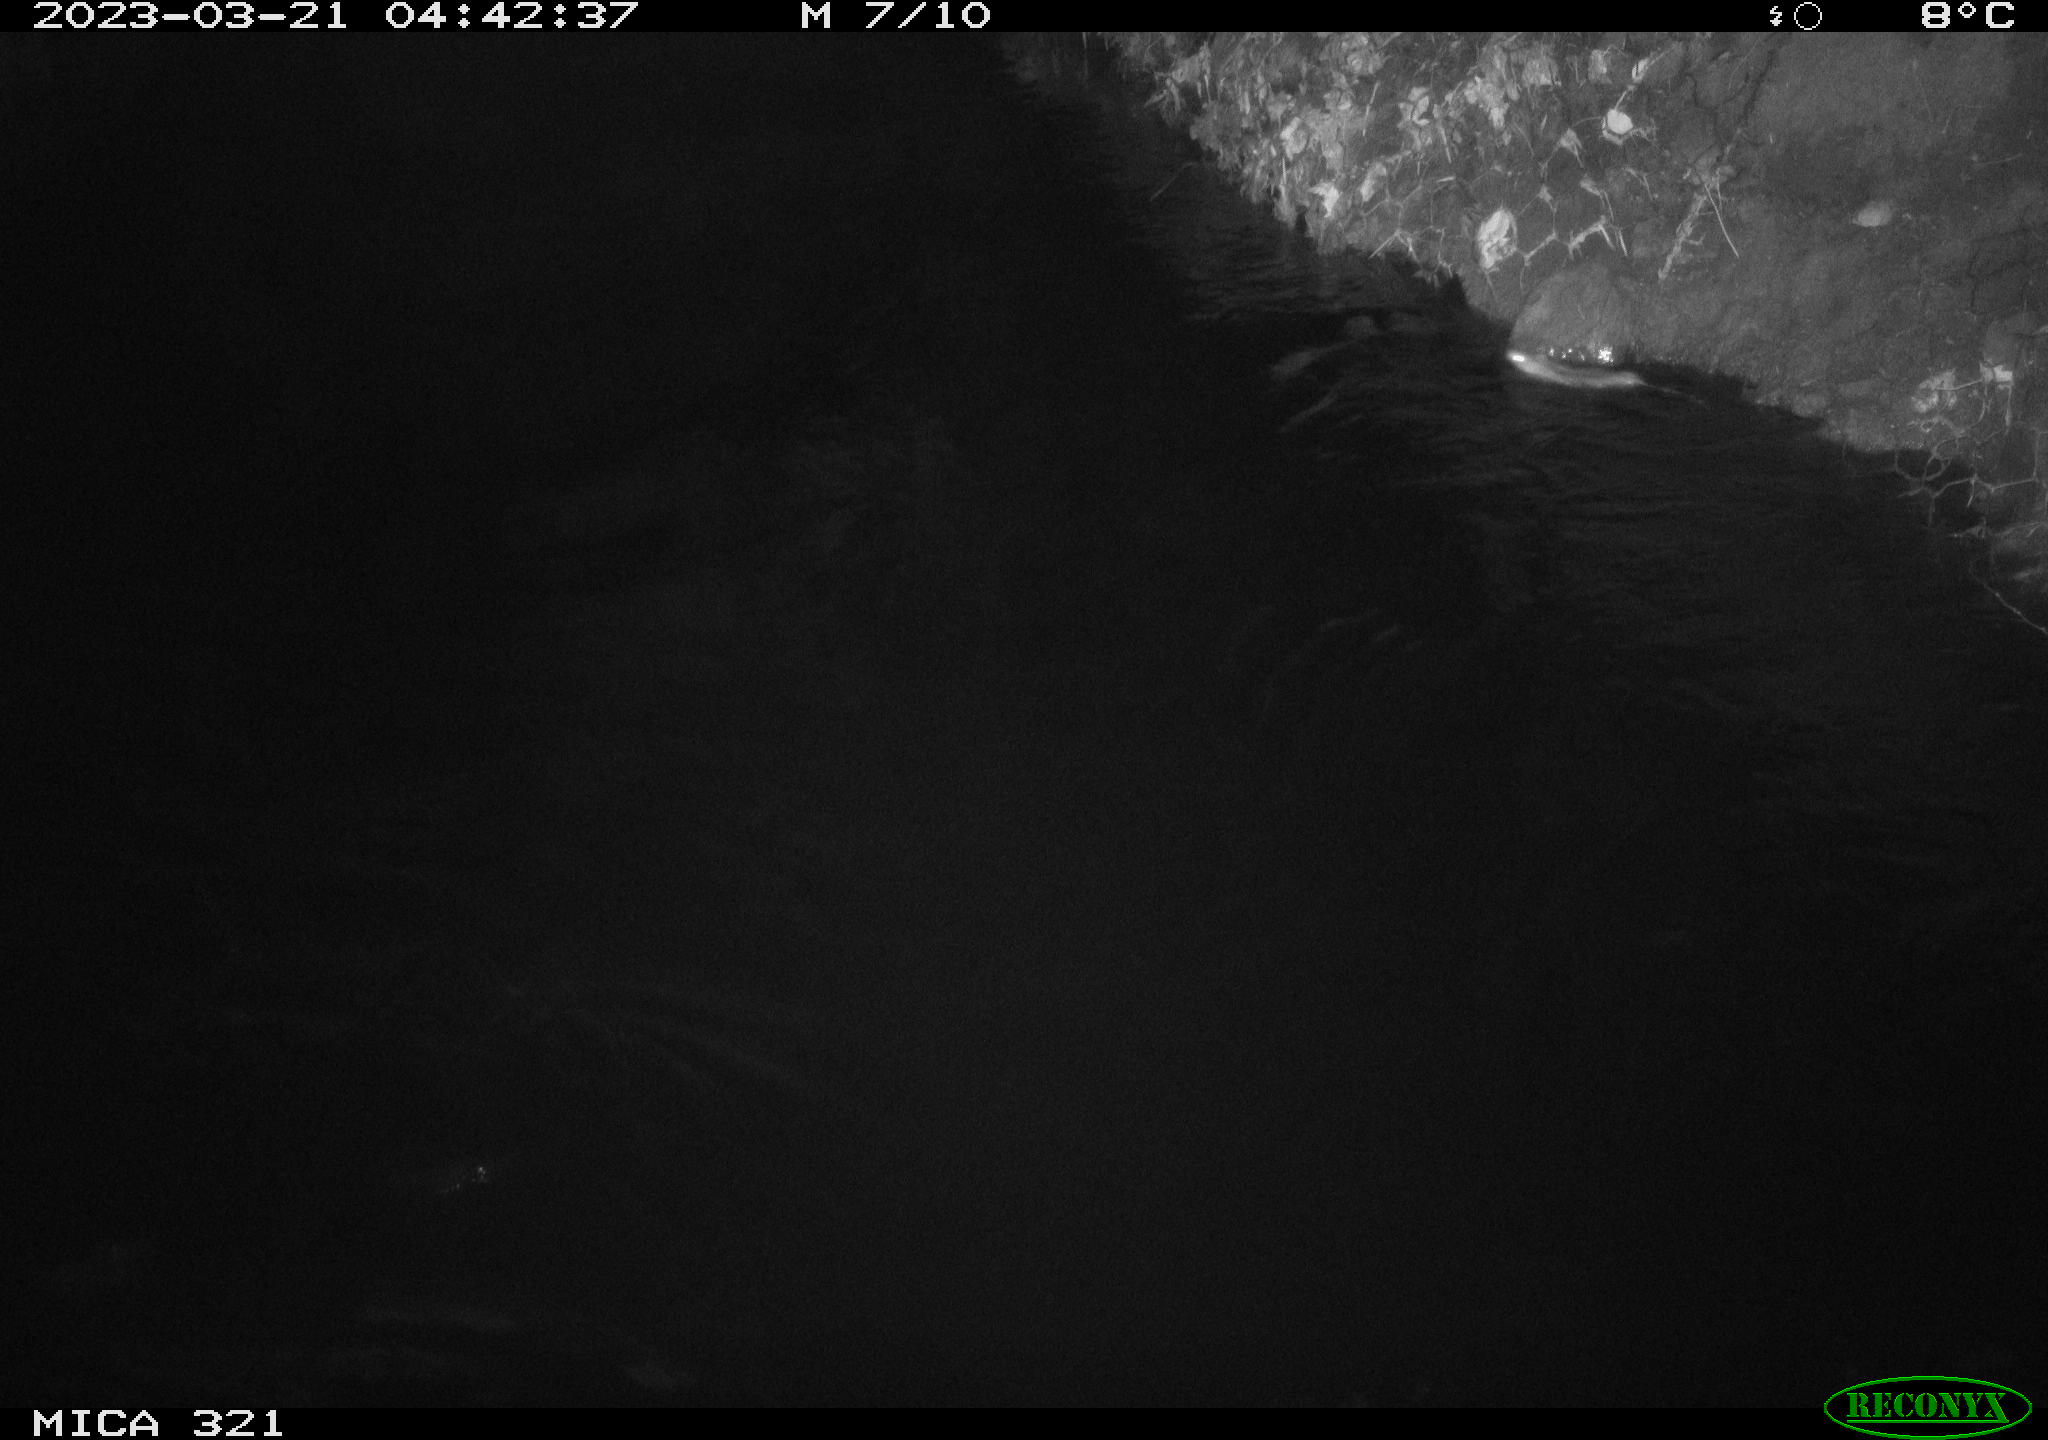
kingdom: Animalia
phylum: Chordata
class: Mammalia
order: Rodentia
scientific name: Rodentia
